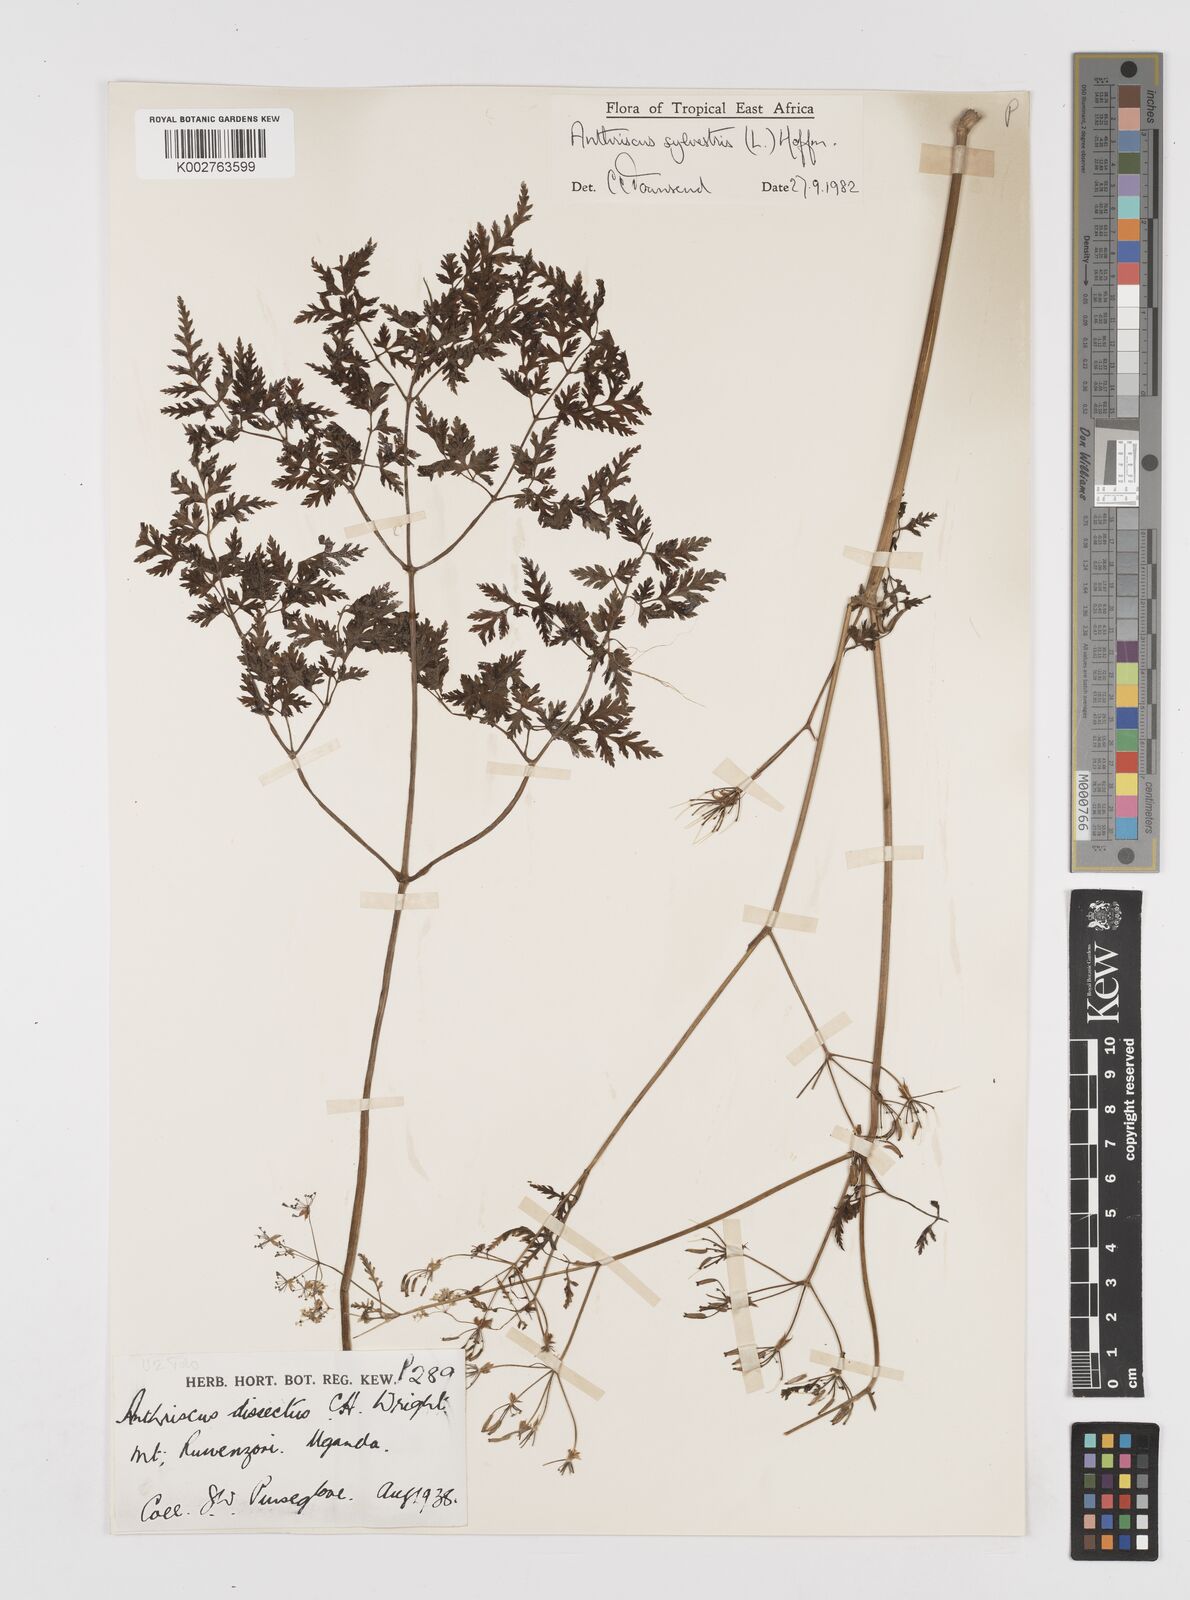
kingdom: Plantae
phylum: Tracheophyta
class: Magnoliopsida
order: Apiales
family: Apiaceae
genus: Anthriscus
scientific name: Anthriscus sylvestris
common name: Cow parsley
